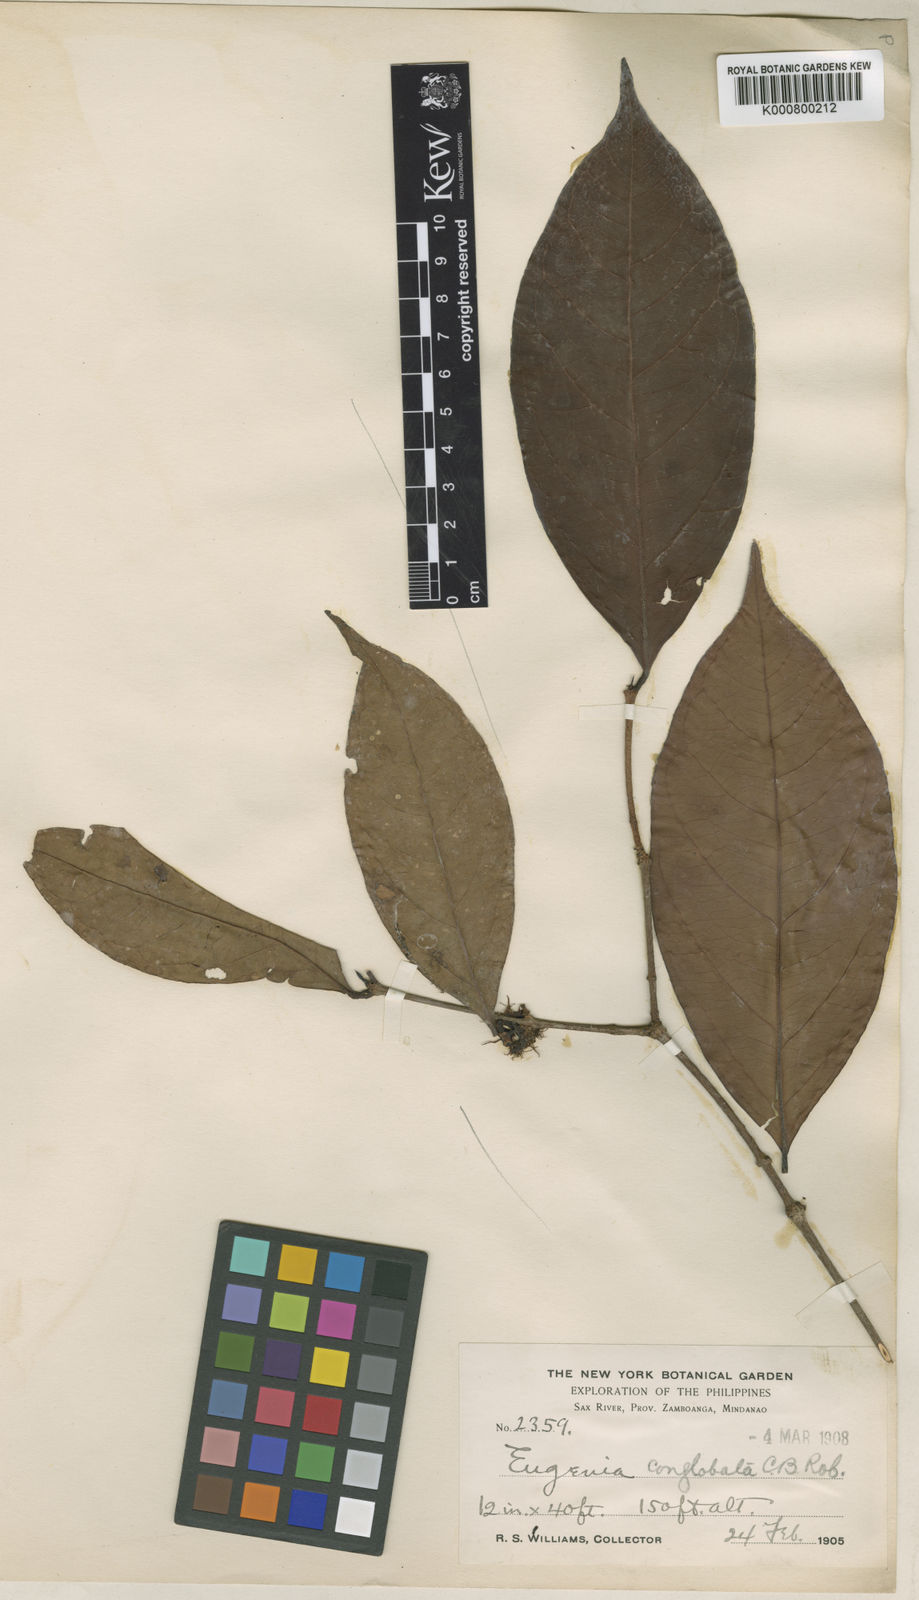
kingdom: Plantae
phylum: Tracheophyta
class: Magnoliopsida
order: Myrtales
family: Myrtaceae
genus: Syzygium
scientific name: Syzygium conglobatum
